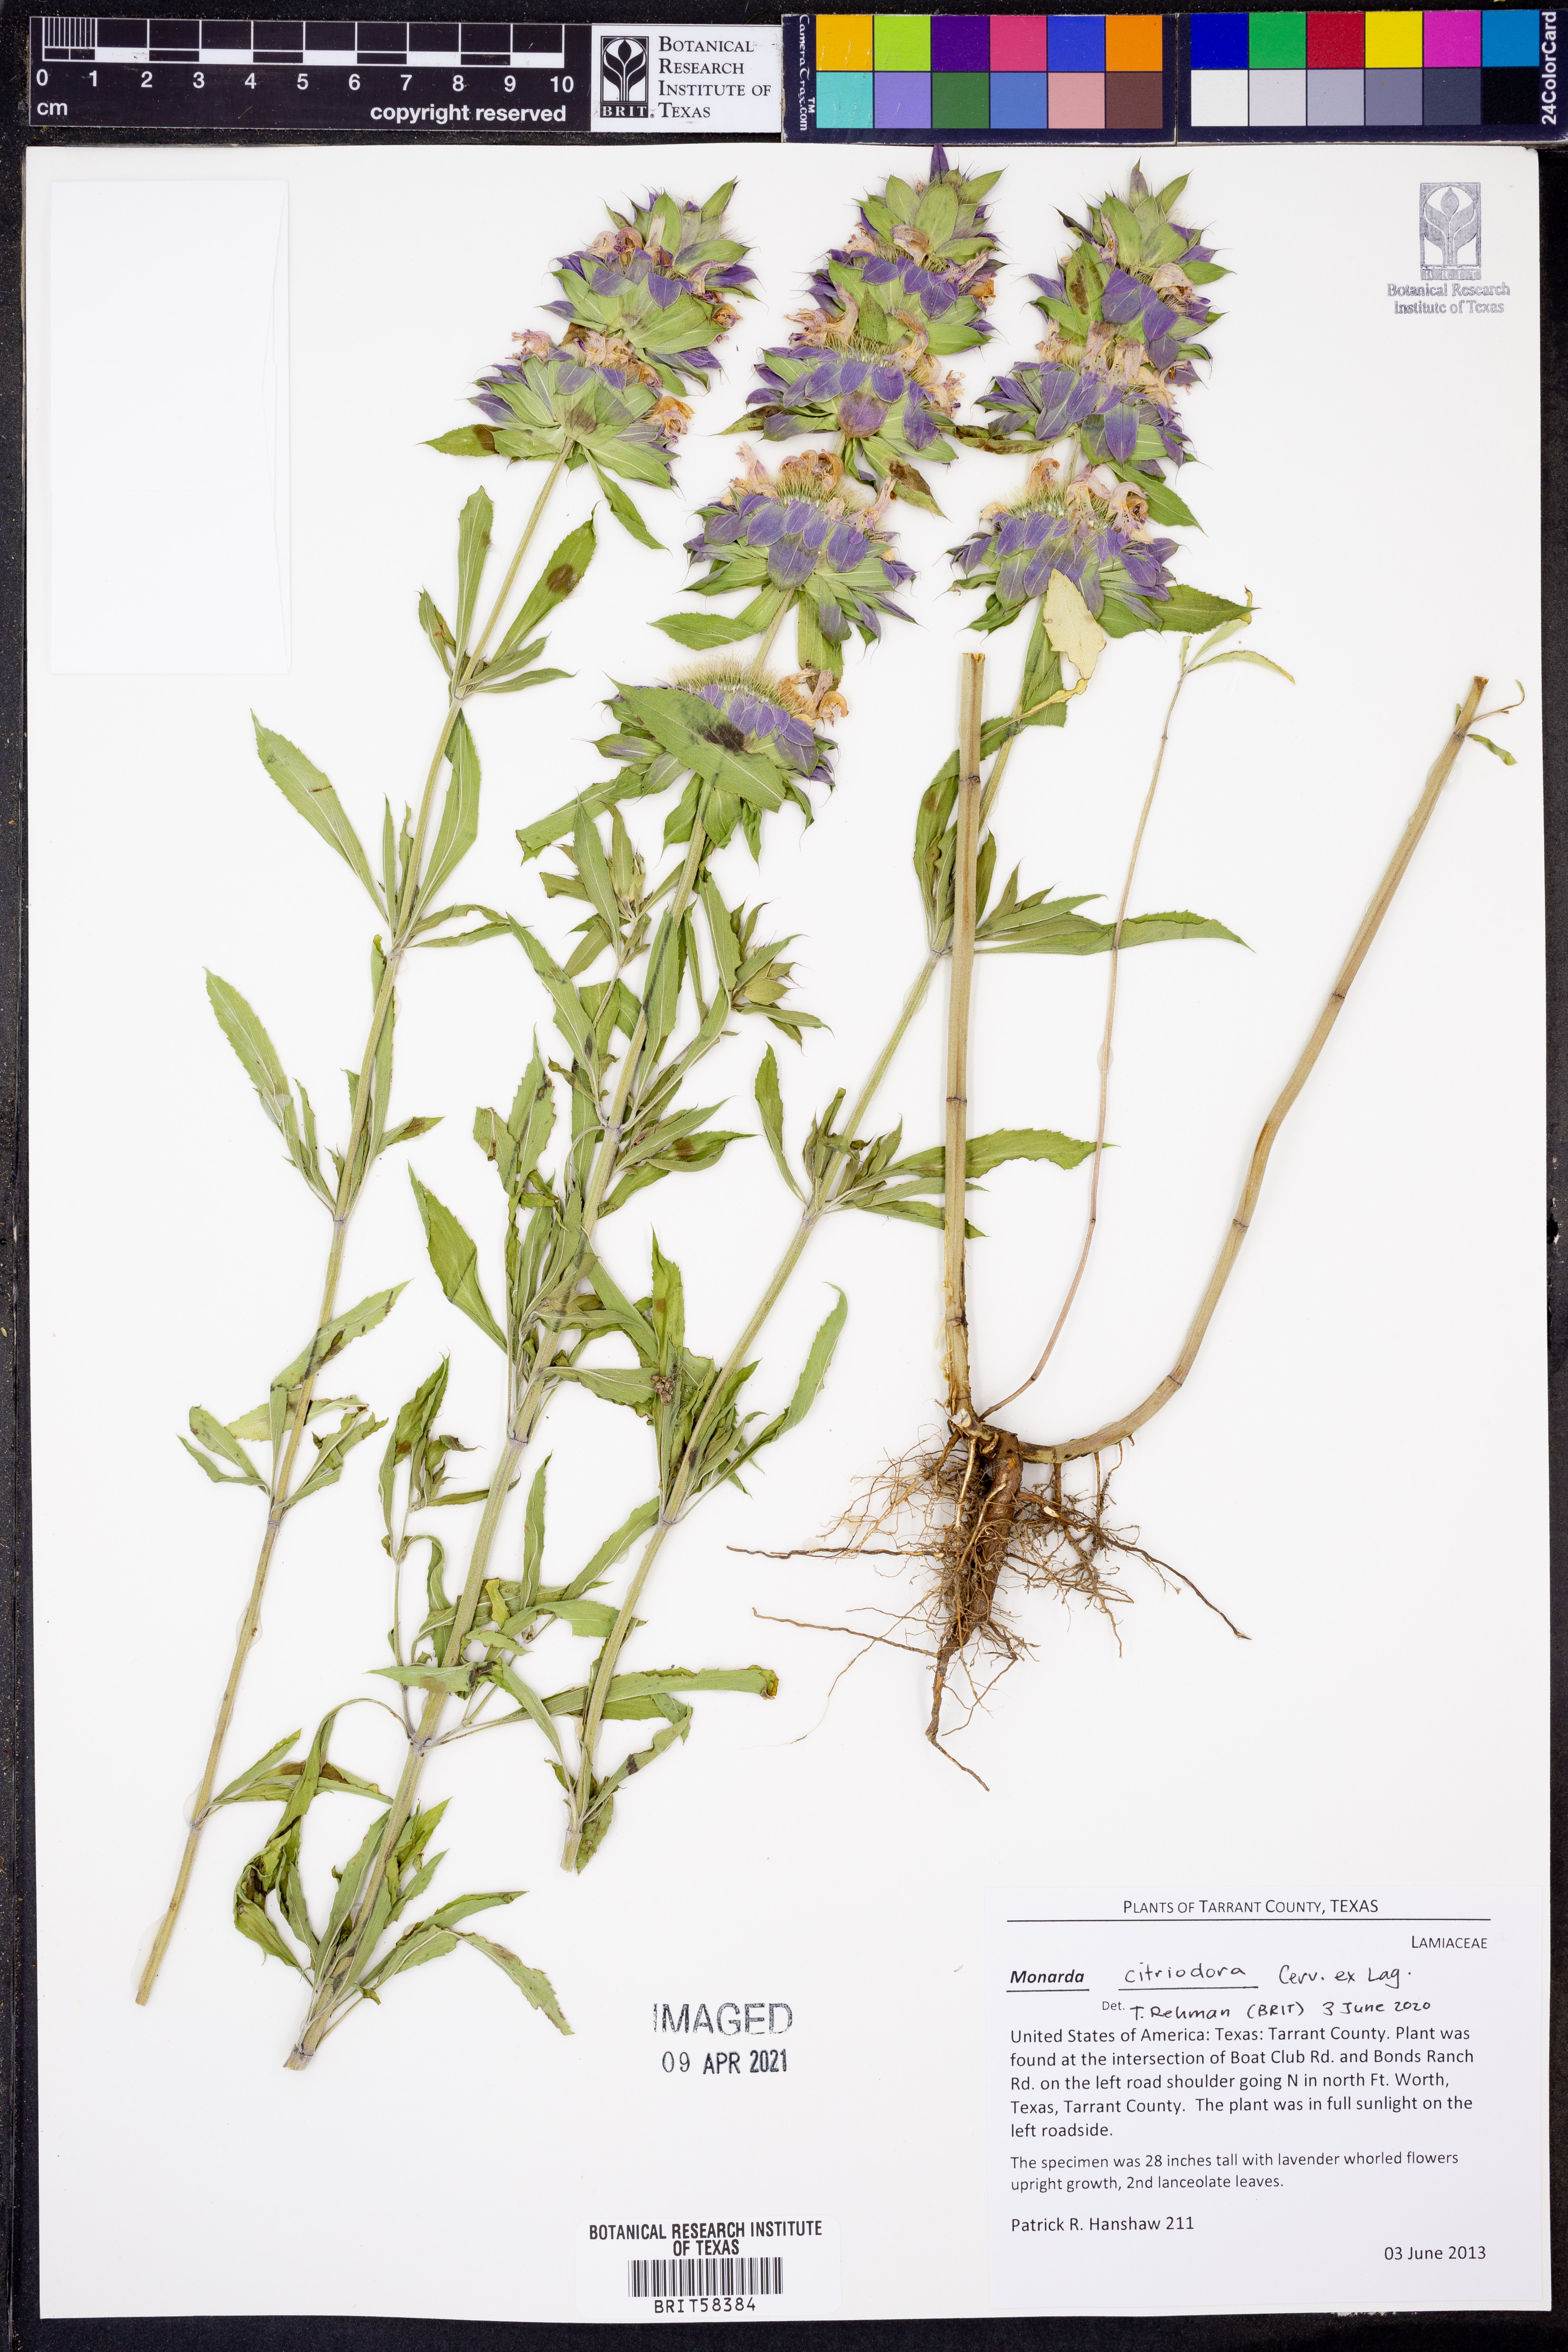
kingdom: Plantae
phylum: Tracheophyta
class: Magnoliopsida
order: Lamiales
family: Lamiaceae
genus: Monarda
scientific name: Monarda citriodora
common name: Lemon beebalm
